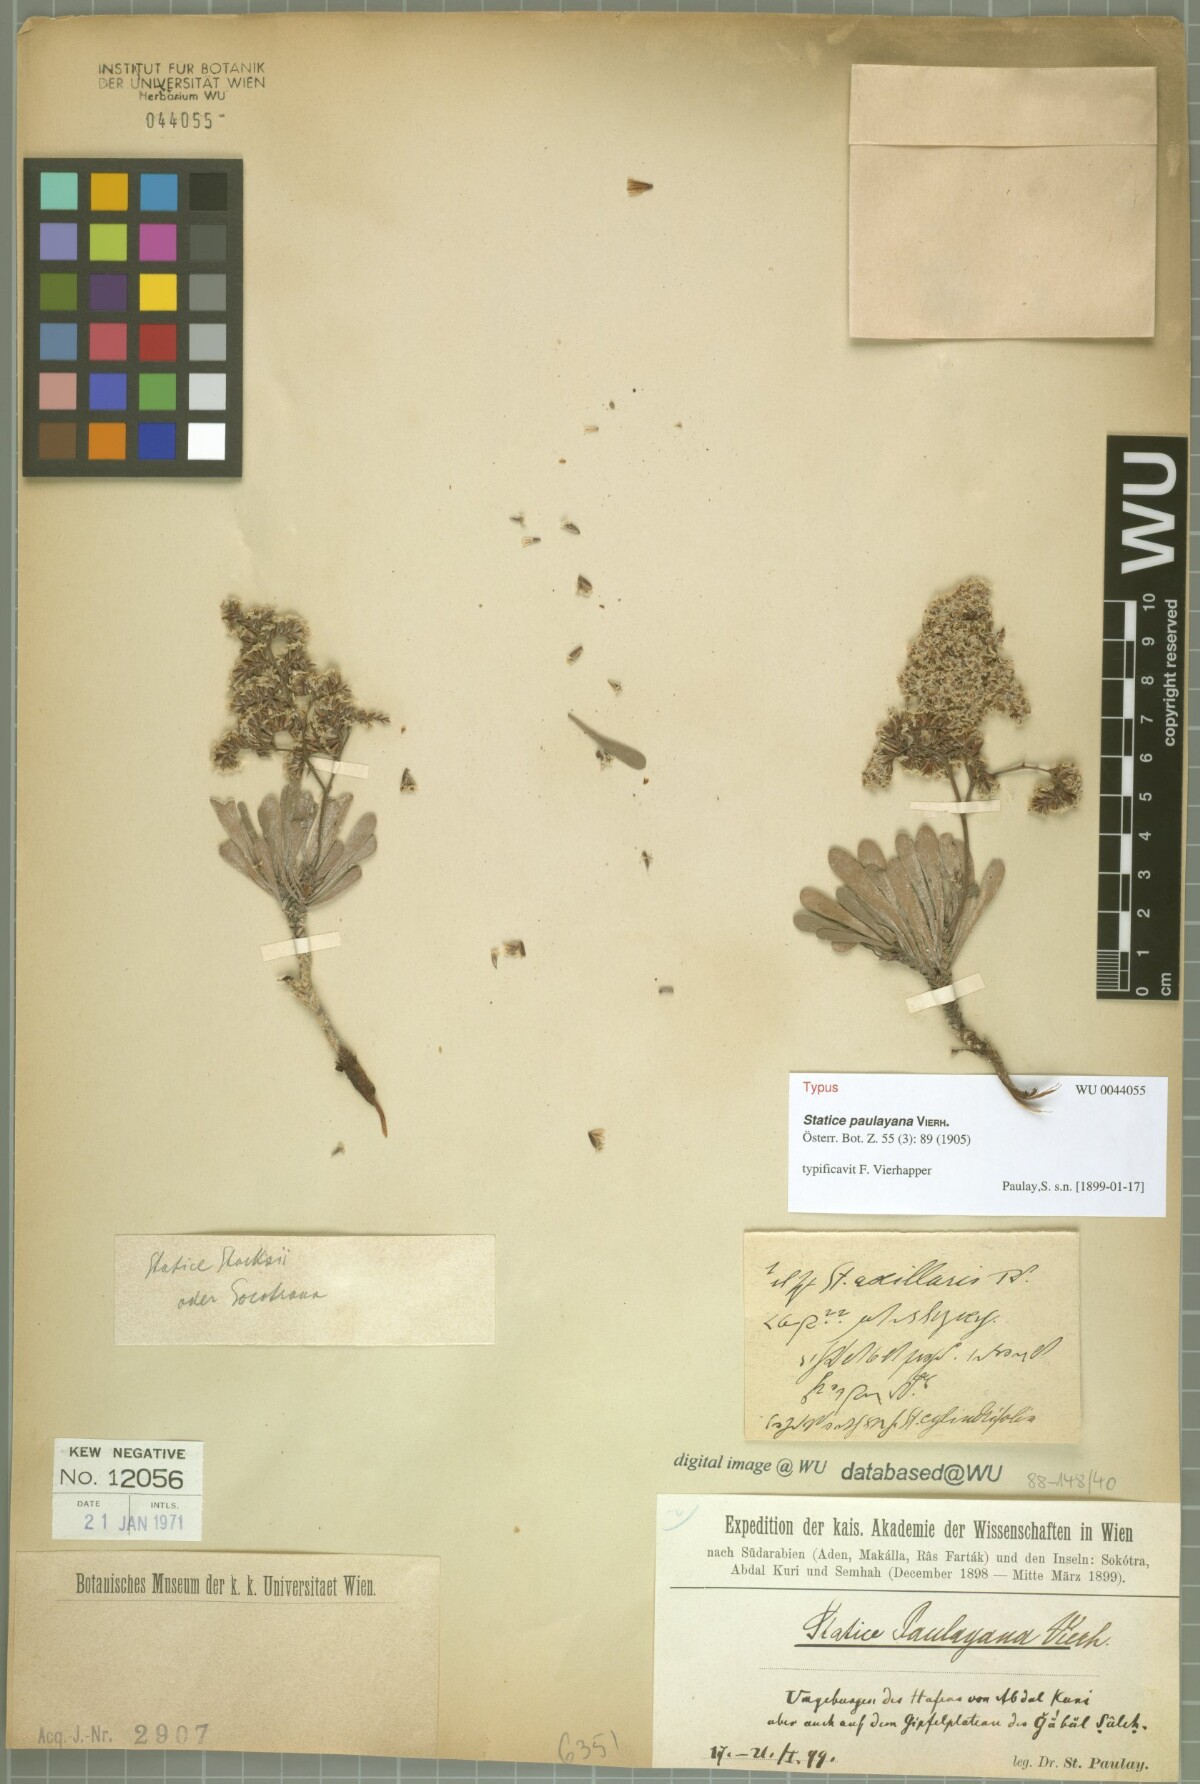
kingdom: Plantae
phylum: Tracheophyta
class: Magnoliopsida
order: Caryophyllales
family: Plumbaginaceae
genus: Limonium
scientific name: Limonium paulayanum
